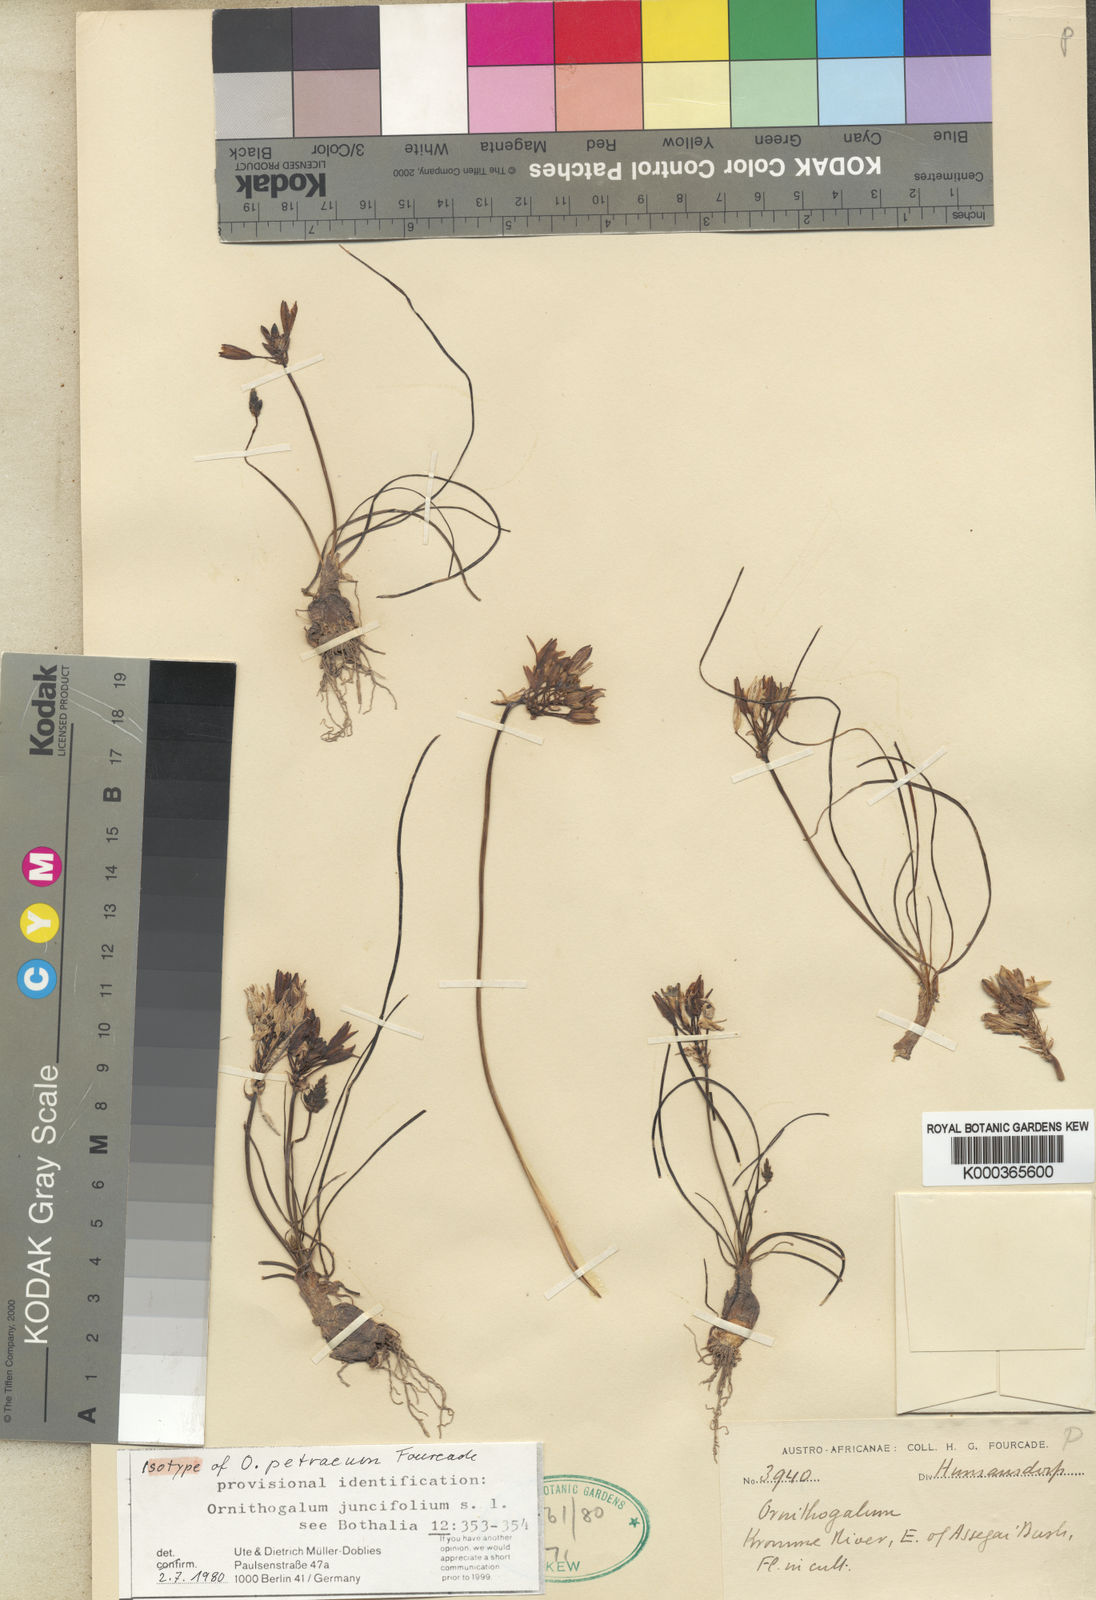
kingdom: Plantae
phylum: Tracheophyta
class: Liliopsida
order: Asparagales
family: Asparagaceae
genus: Ornithogalum
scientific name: Ornithogalum juncifolium
